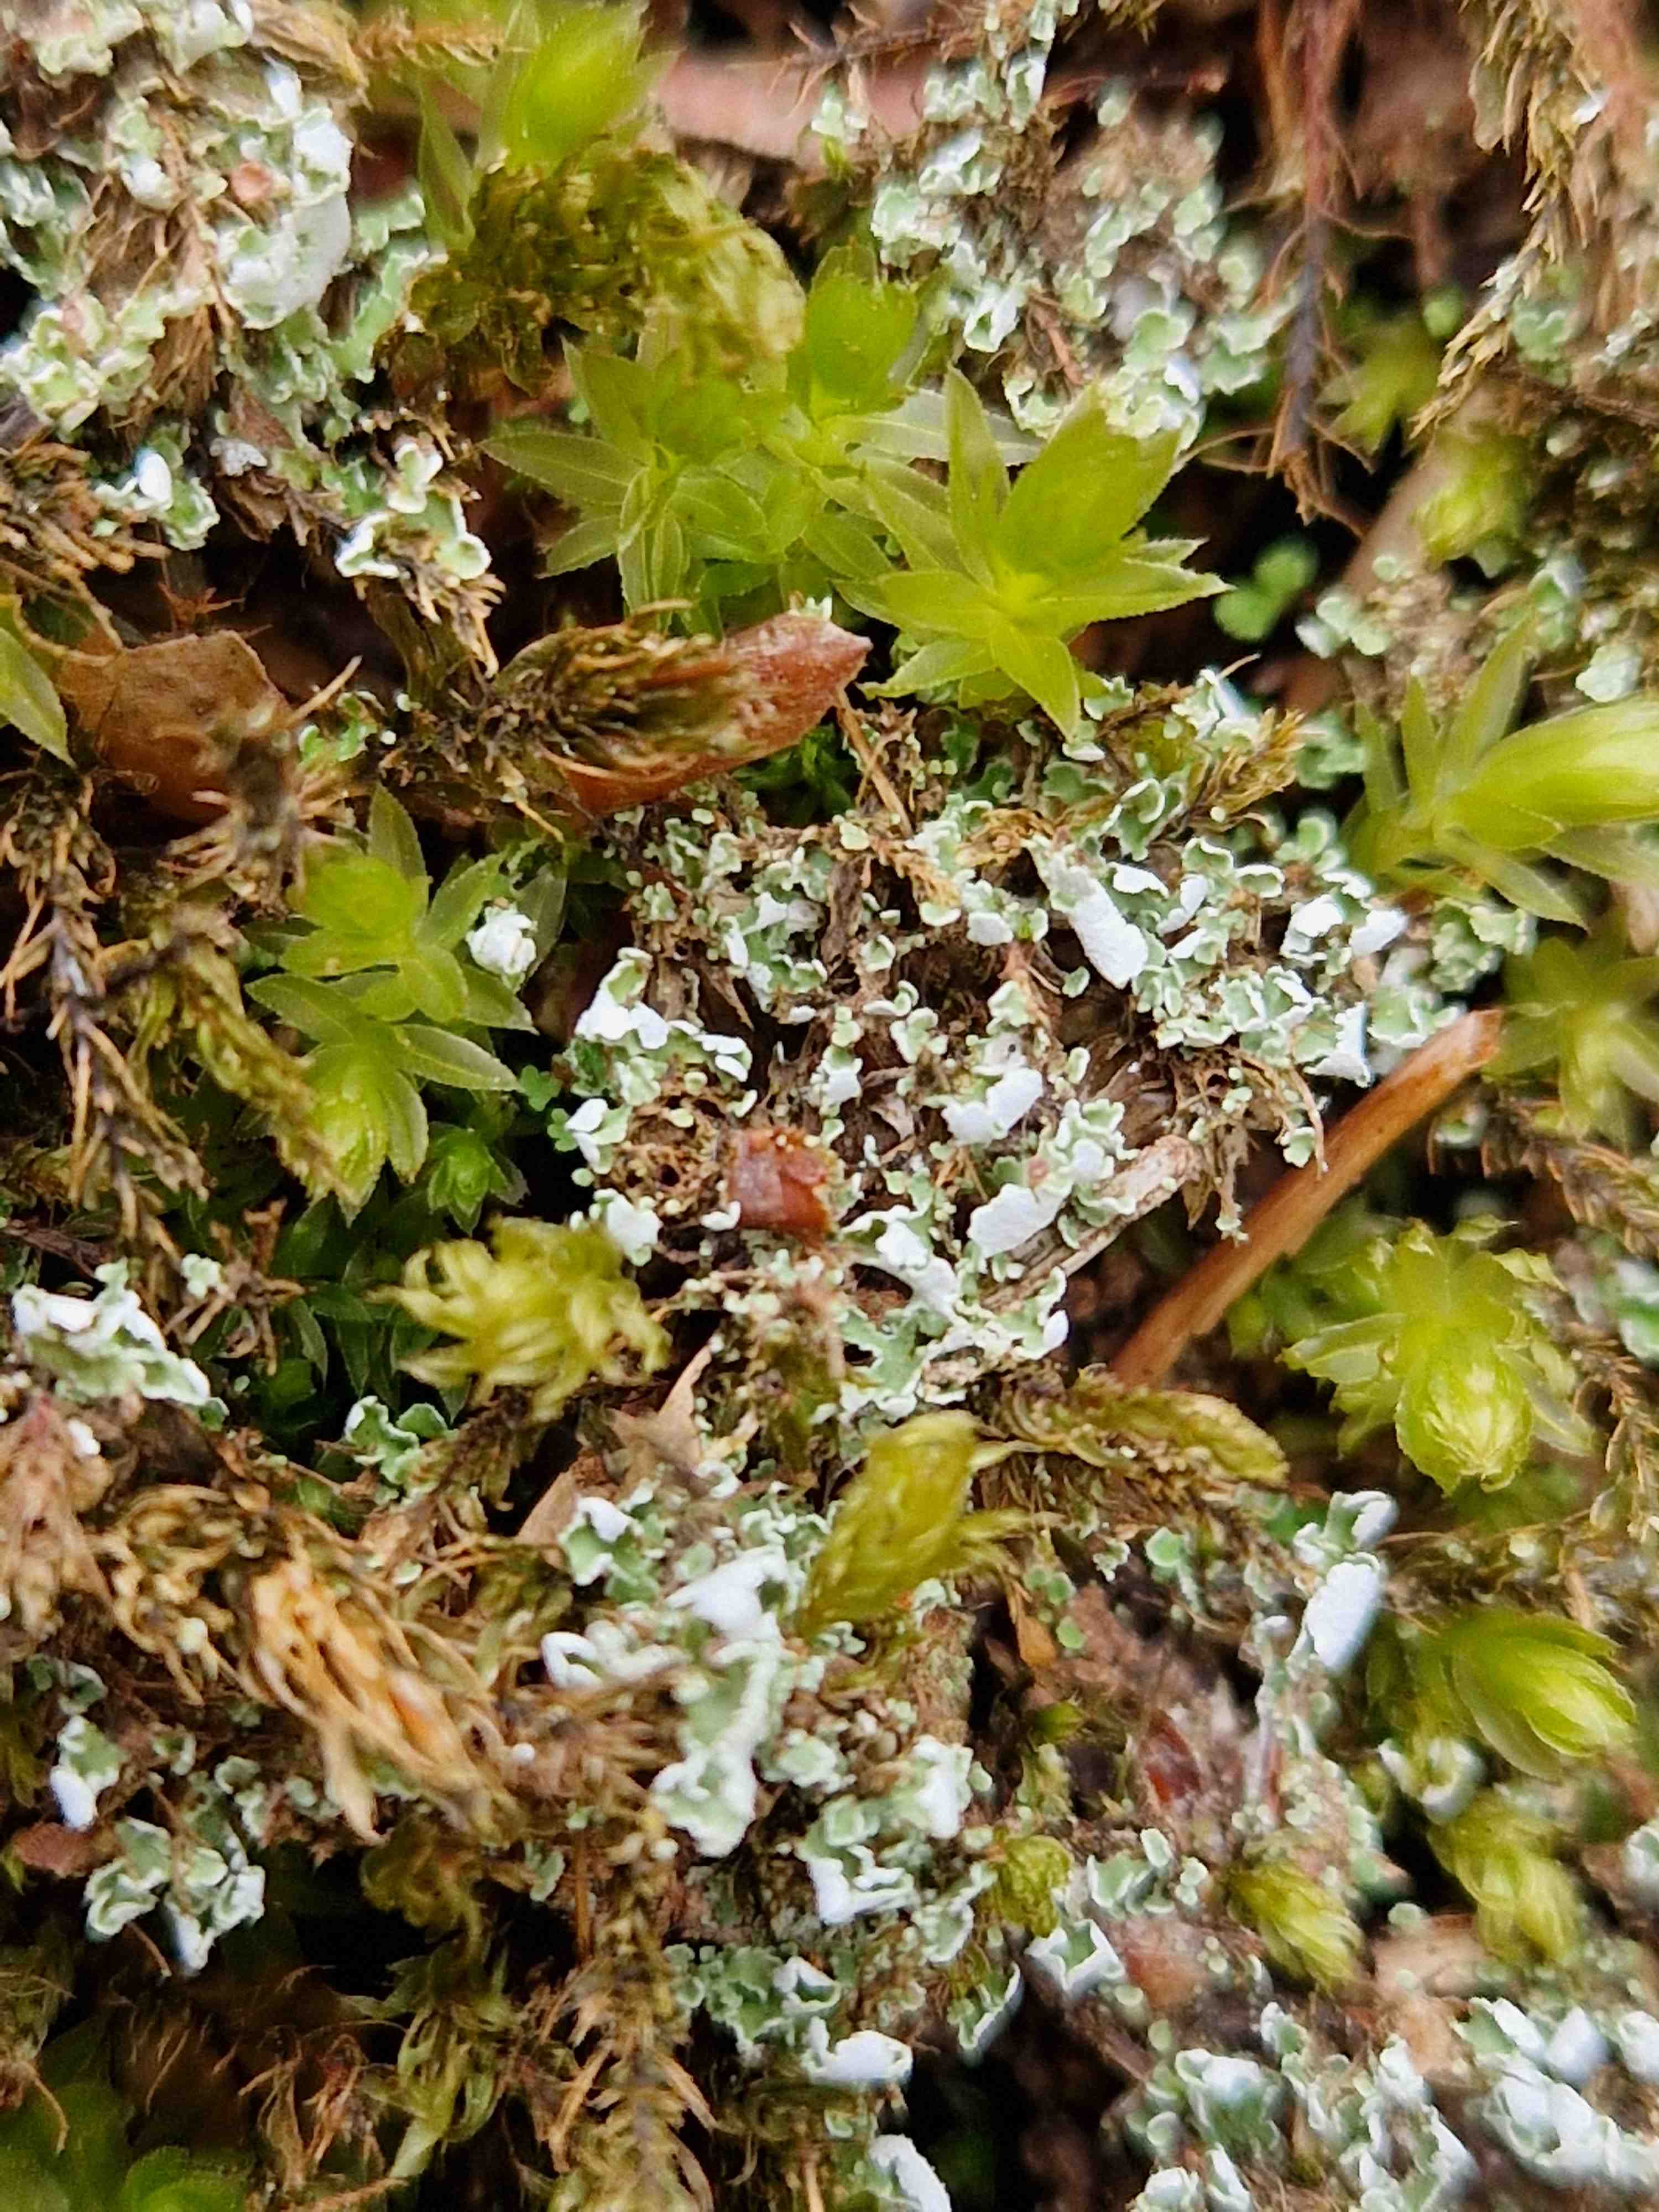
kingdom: Fungi
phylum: Ascomycota
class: Lecanoromycetes
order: Lecanorales
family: Cladoniaceae
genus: Cladonia
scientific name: Cladonia
